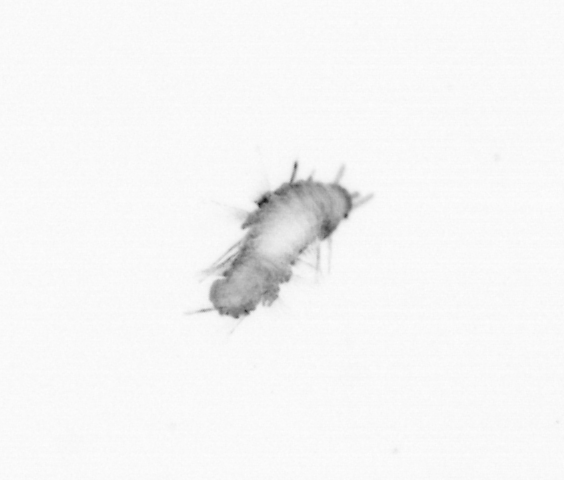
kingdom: Animalia
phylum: Annelida
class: Polychaeta
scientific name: Polychaeta
